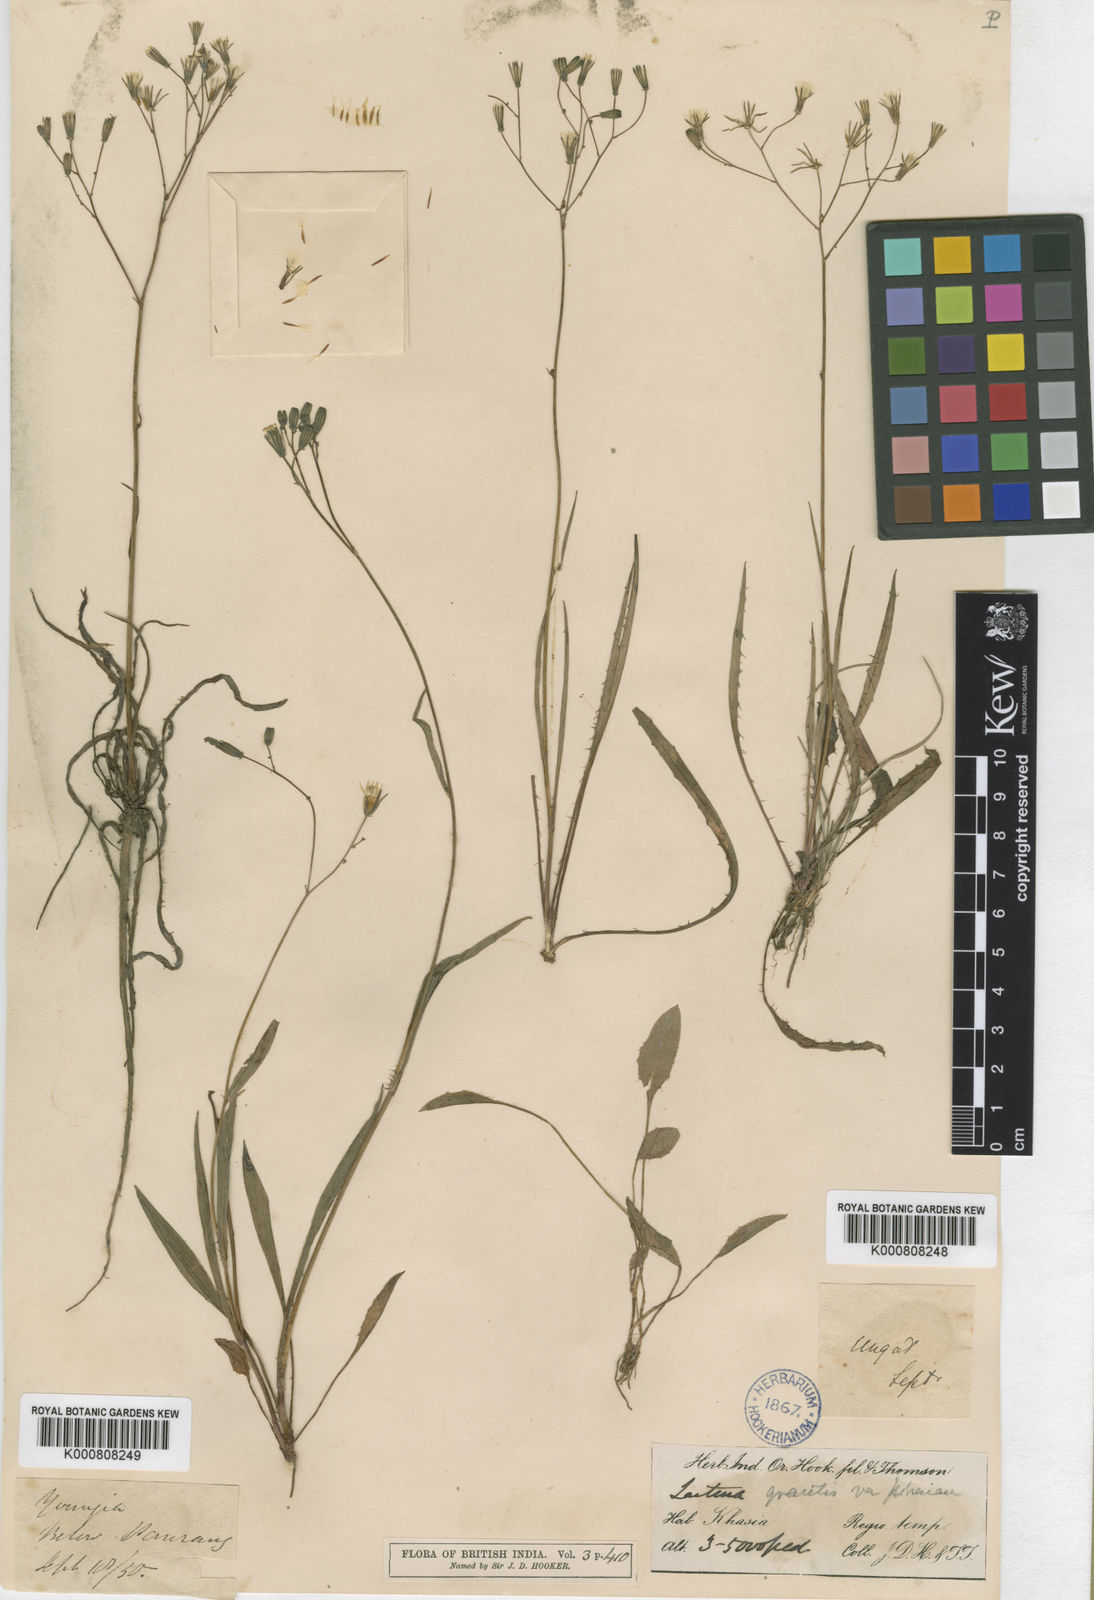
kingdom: Plantae
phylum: Tracheophyta
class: Magnoliopsida
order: Asterales
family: Asteraceae
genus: Ixeridium
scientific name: Ixeridium beauverdianum
